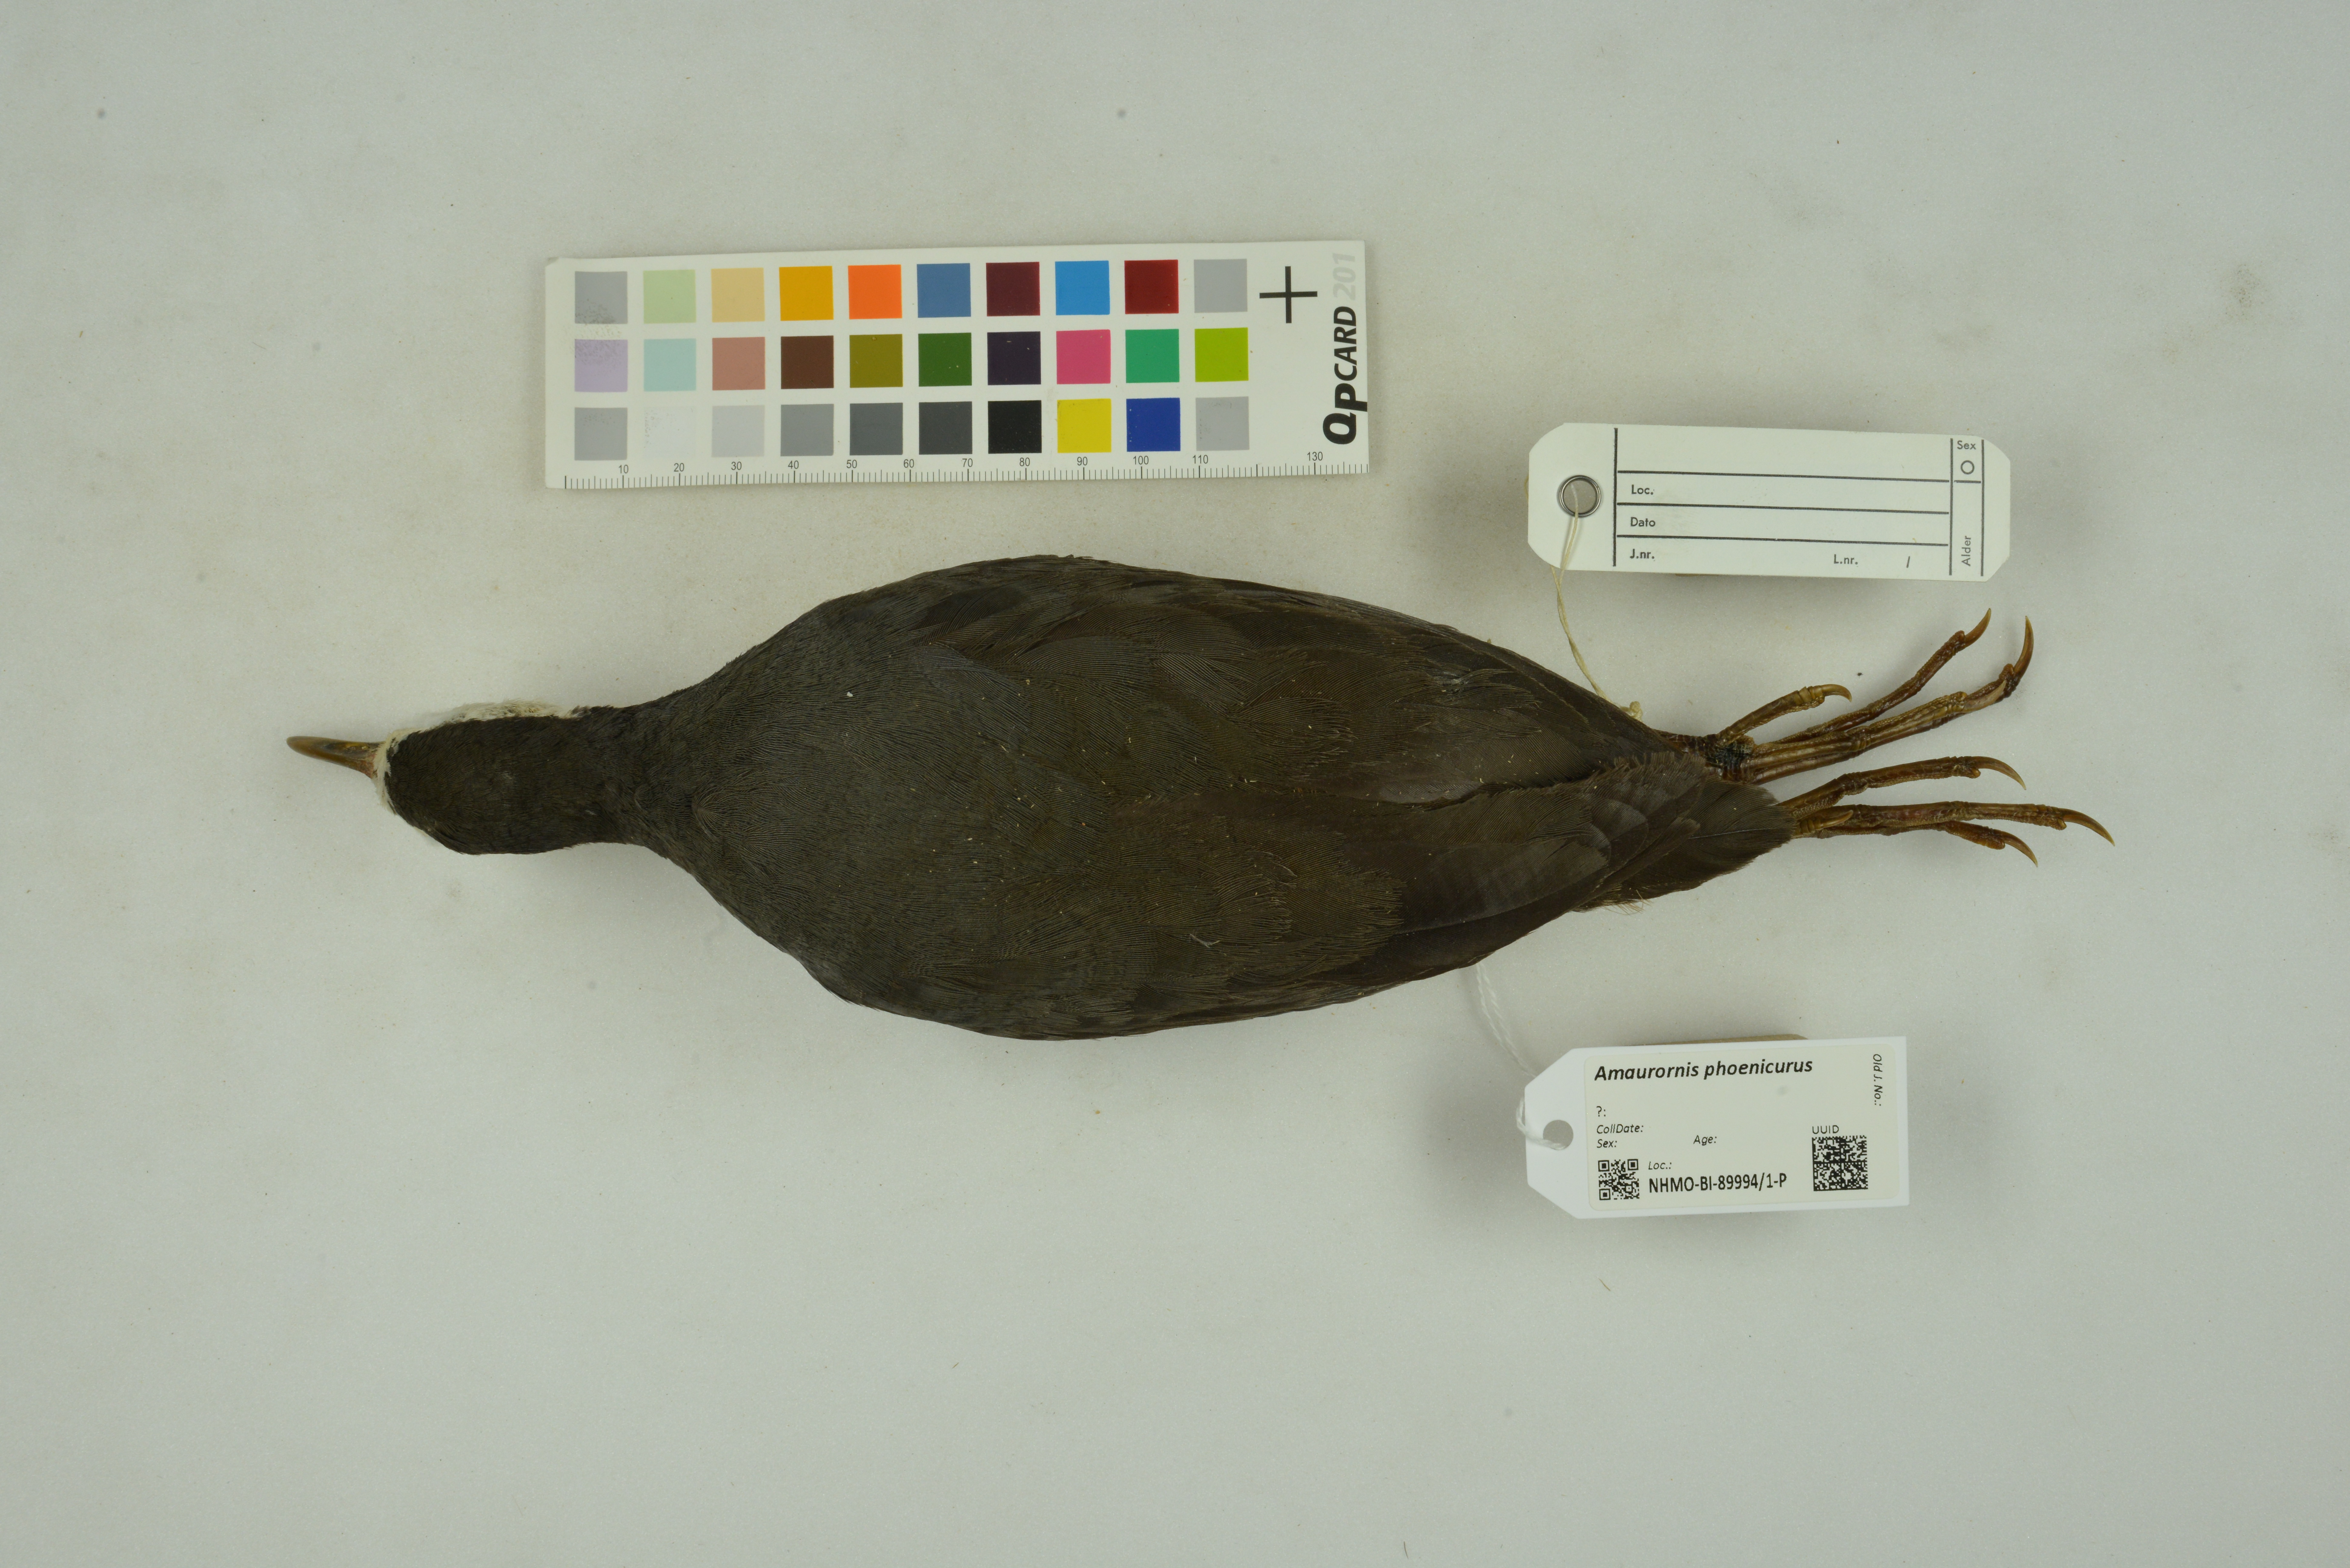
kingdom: Animalia
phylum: Chordata
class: Aves
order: Gruiformes
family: Rallidae
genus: Amaurornis
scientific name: Amaurornis phoenicurus
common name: White-breasted waterhen
